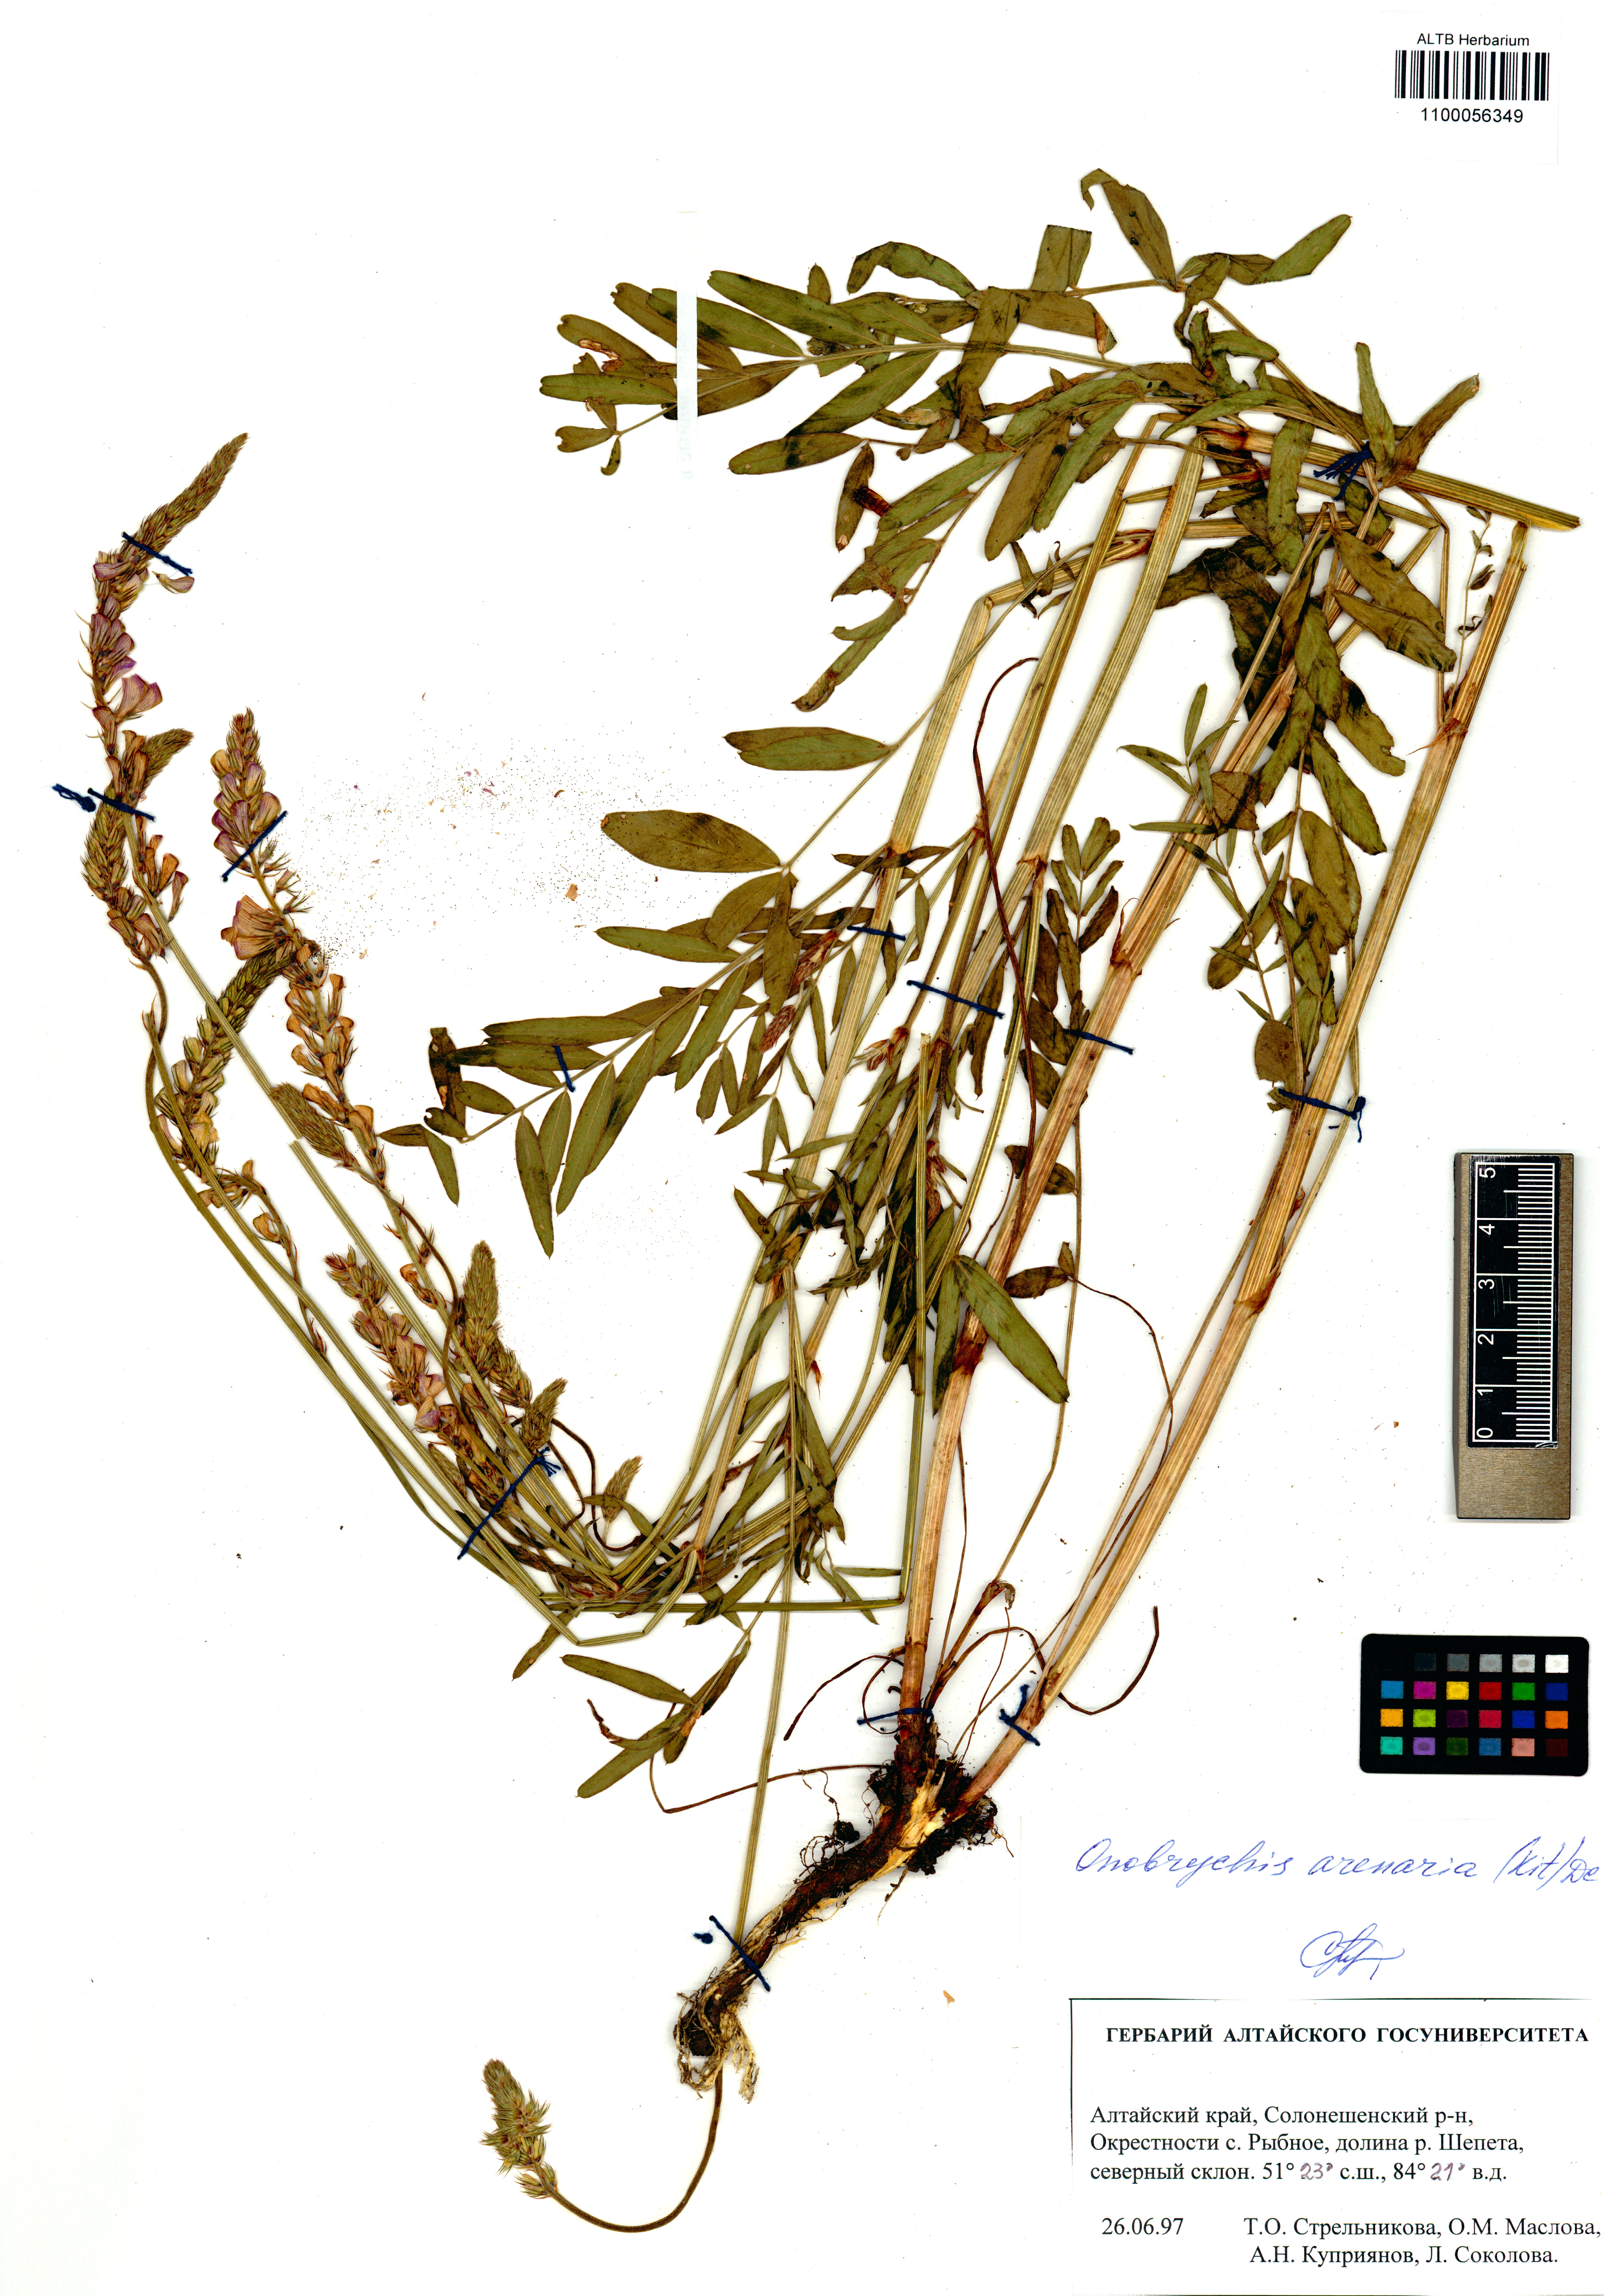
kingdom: Plantae
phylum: Tracheophyta
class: Magnoliopsida
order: Fabales
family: Fabaceae
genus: Onobrychis
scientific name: Onobrychis arenaria
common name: Sand esparcet
